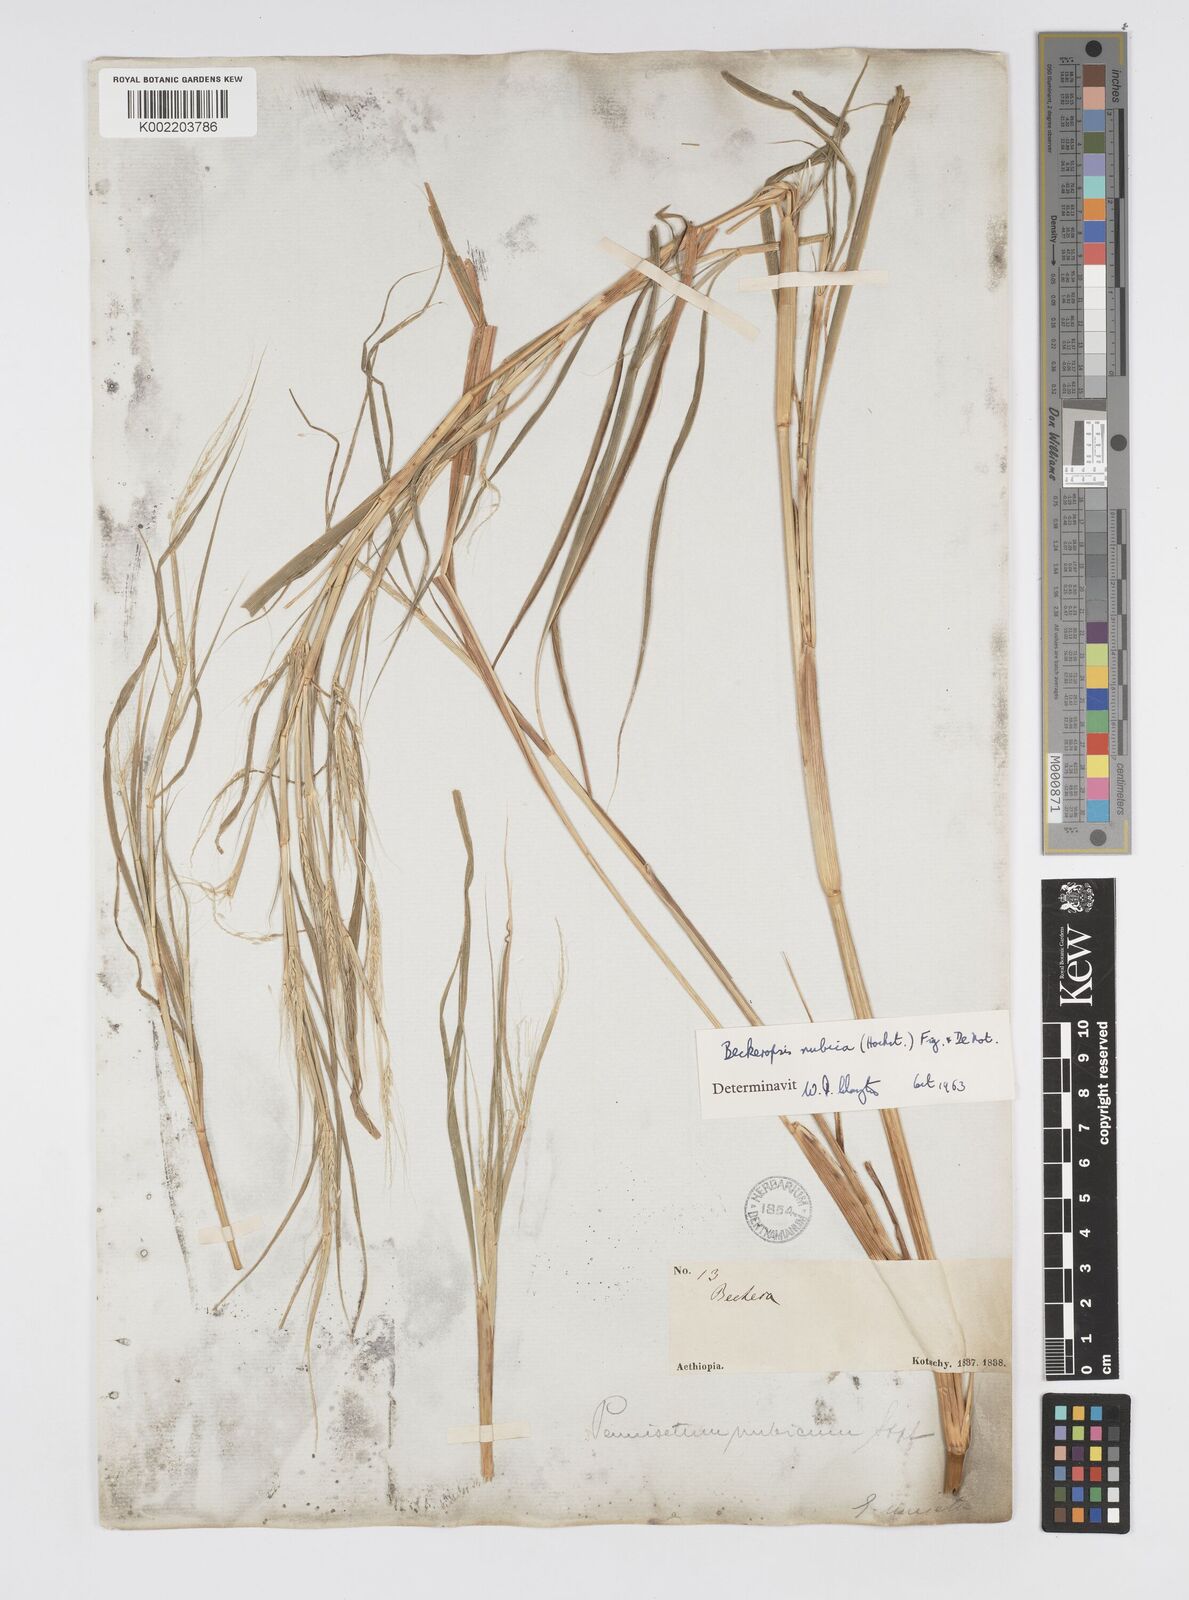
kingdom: Plantae
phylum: Tracheophyta
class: Liliopsida
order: Poales
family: Poaceae
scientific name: Poaceae
